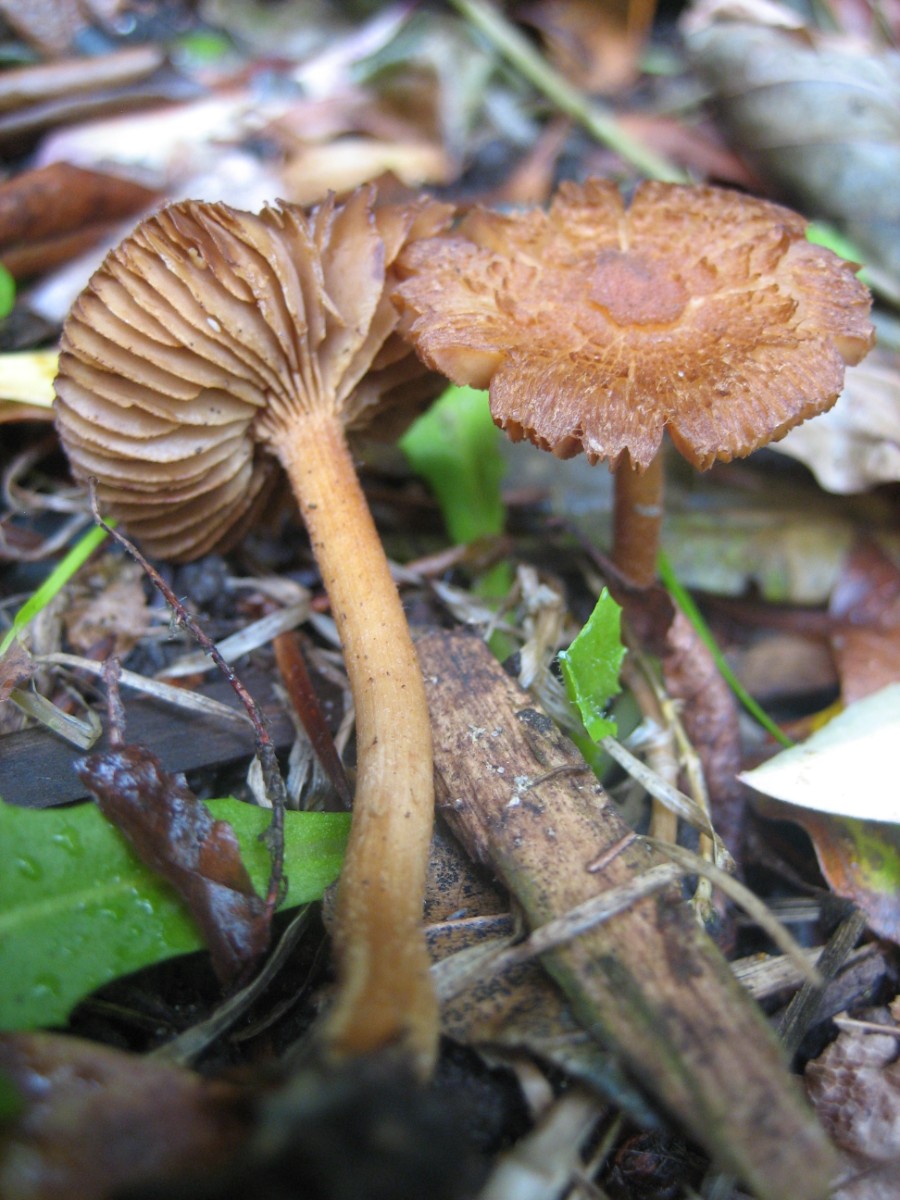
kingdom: Fungi
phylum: Basidiomycota
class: Agaricomycetes
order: Agaricales
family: Inocybaceae
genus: Inocybe
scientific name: Inocybe
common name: trævlhat
